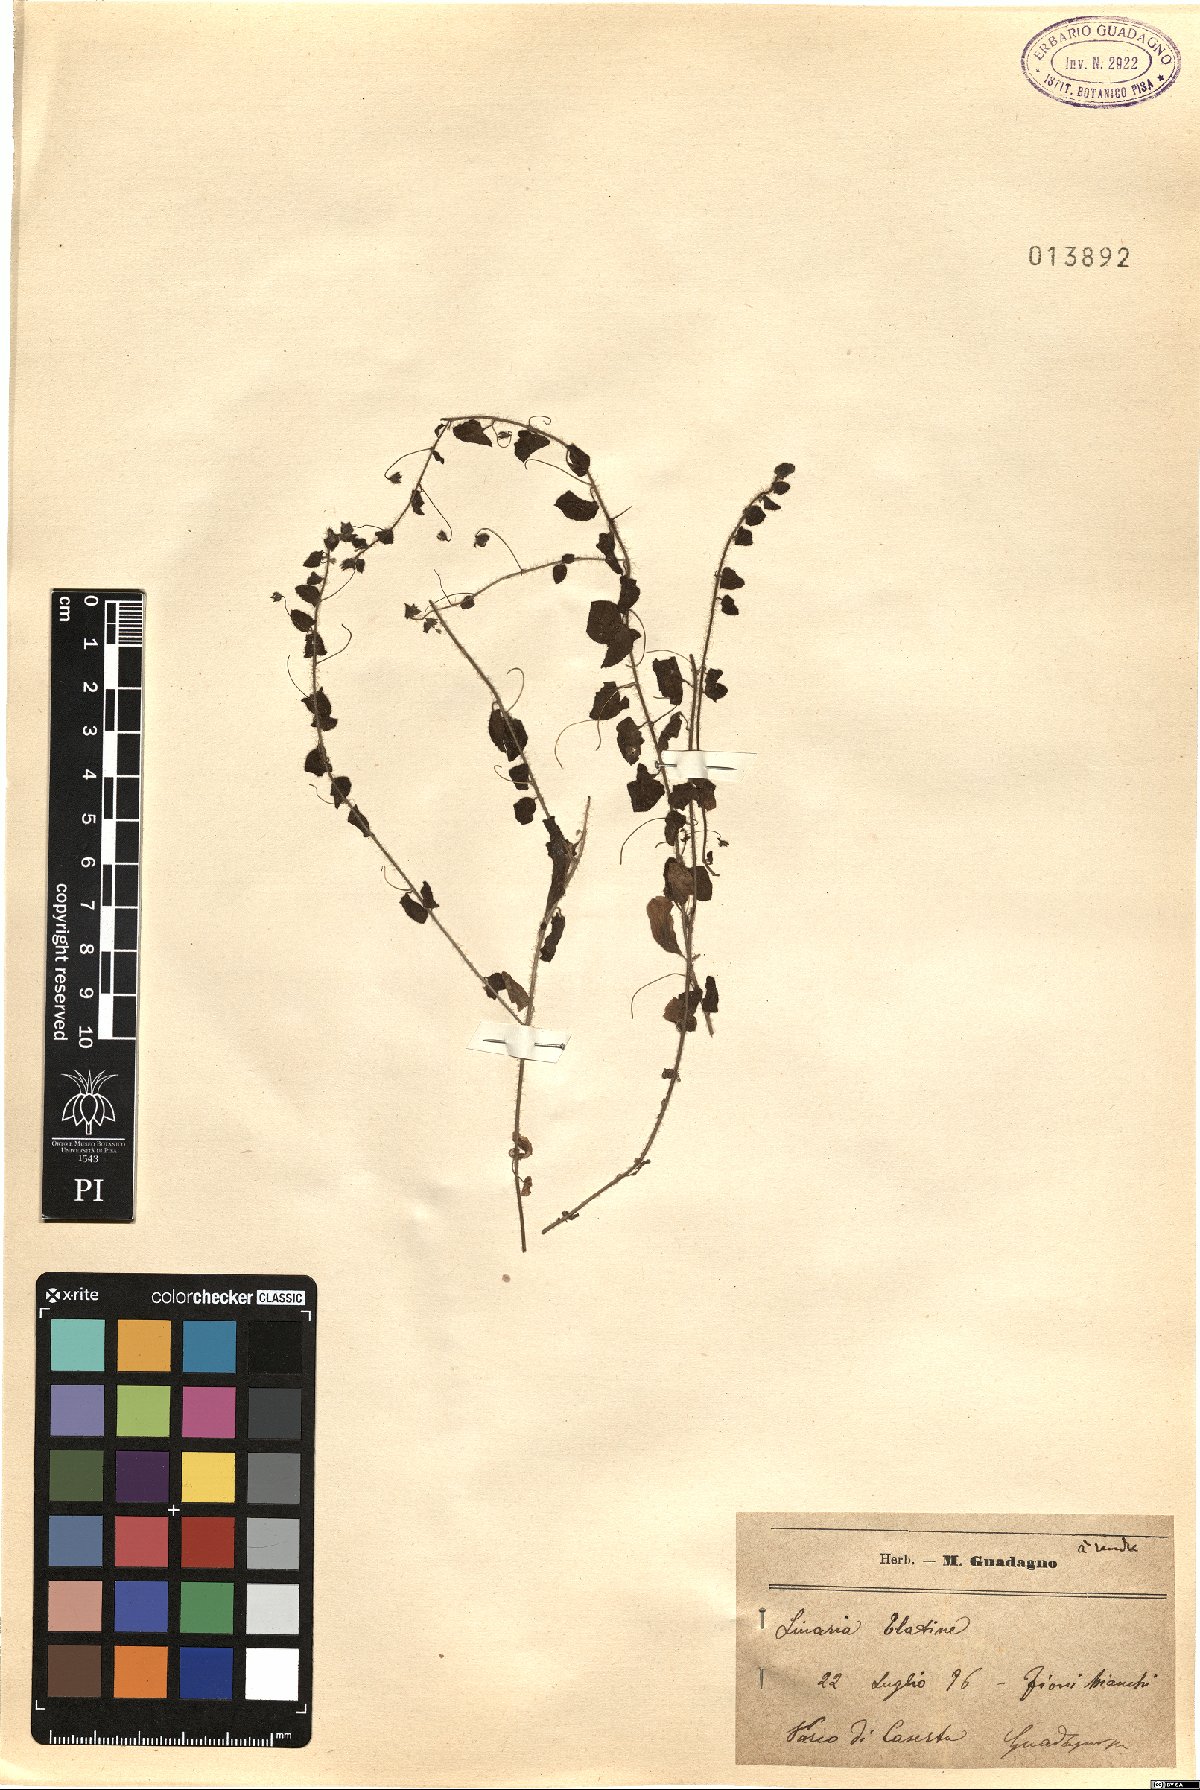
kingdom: Plantae
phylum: Tracheophyta
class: Magnoliopsida
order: Lamiales
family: Plantaginaceae
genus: Kickxia
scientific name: Kickxia elatine
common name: Sharp-leaved fluellen
